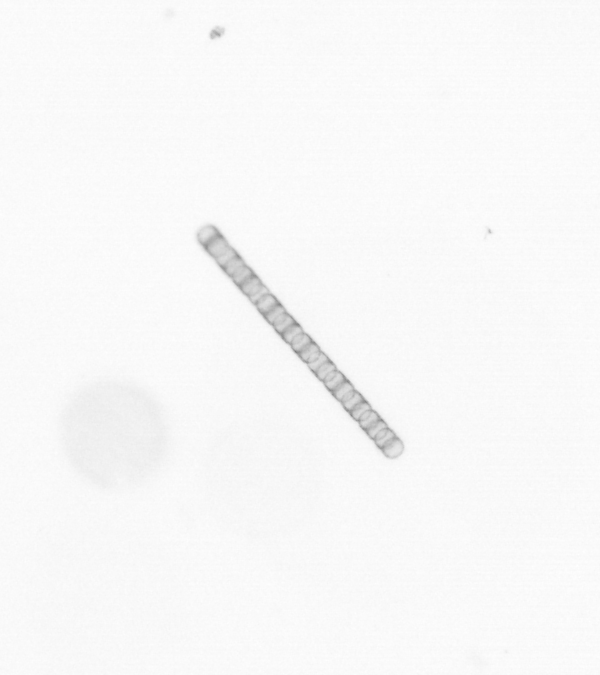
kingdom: Chromista
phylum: Ochrophyta
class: Bacillariophyceae
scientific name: Bacillariophyceae
